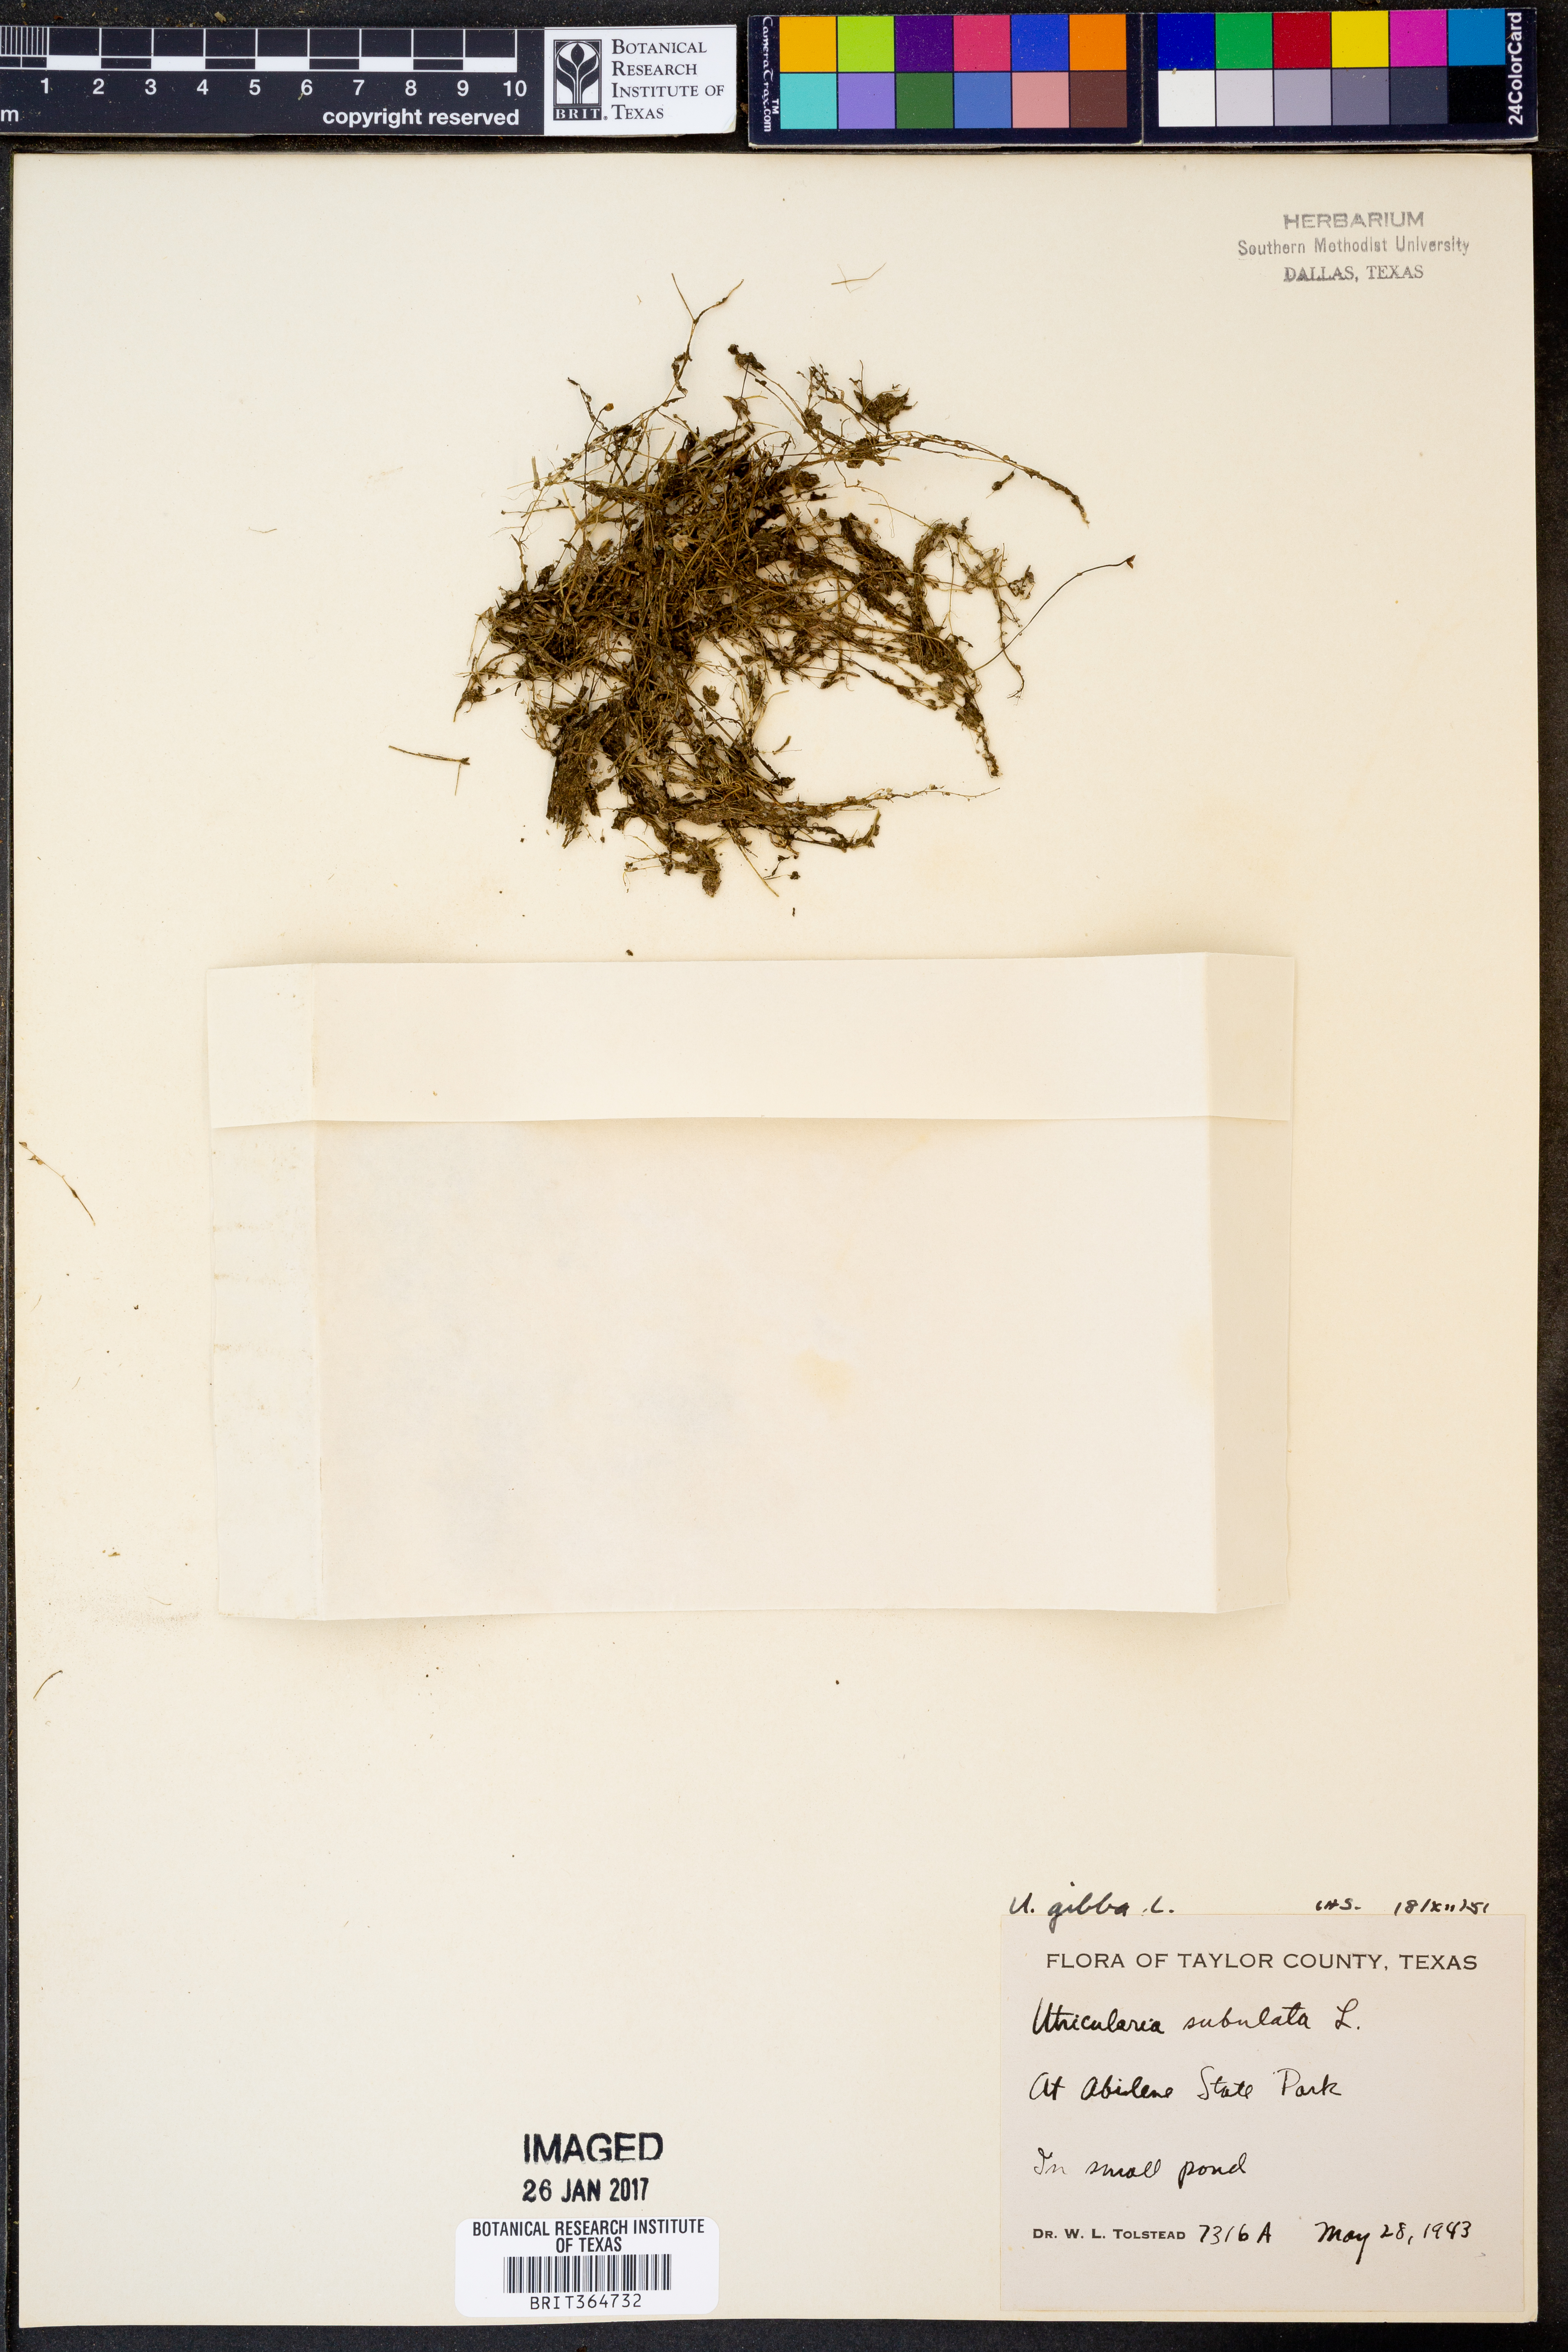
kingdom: Plantae
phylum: Tracheophyta
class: Magnoliopsida
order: Lamiales
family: Lentibulariaceae
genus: Utricularia
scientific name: Utricularia gibba
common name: Humped bladderwort
